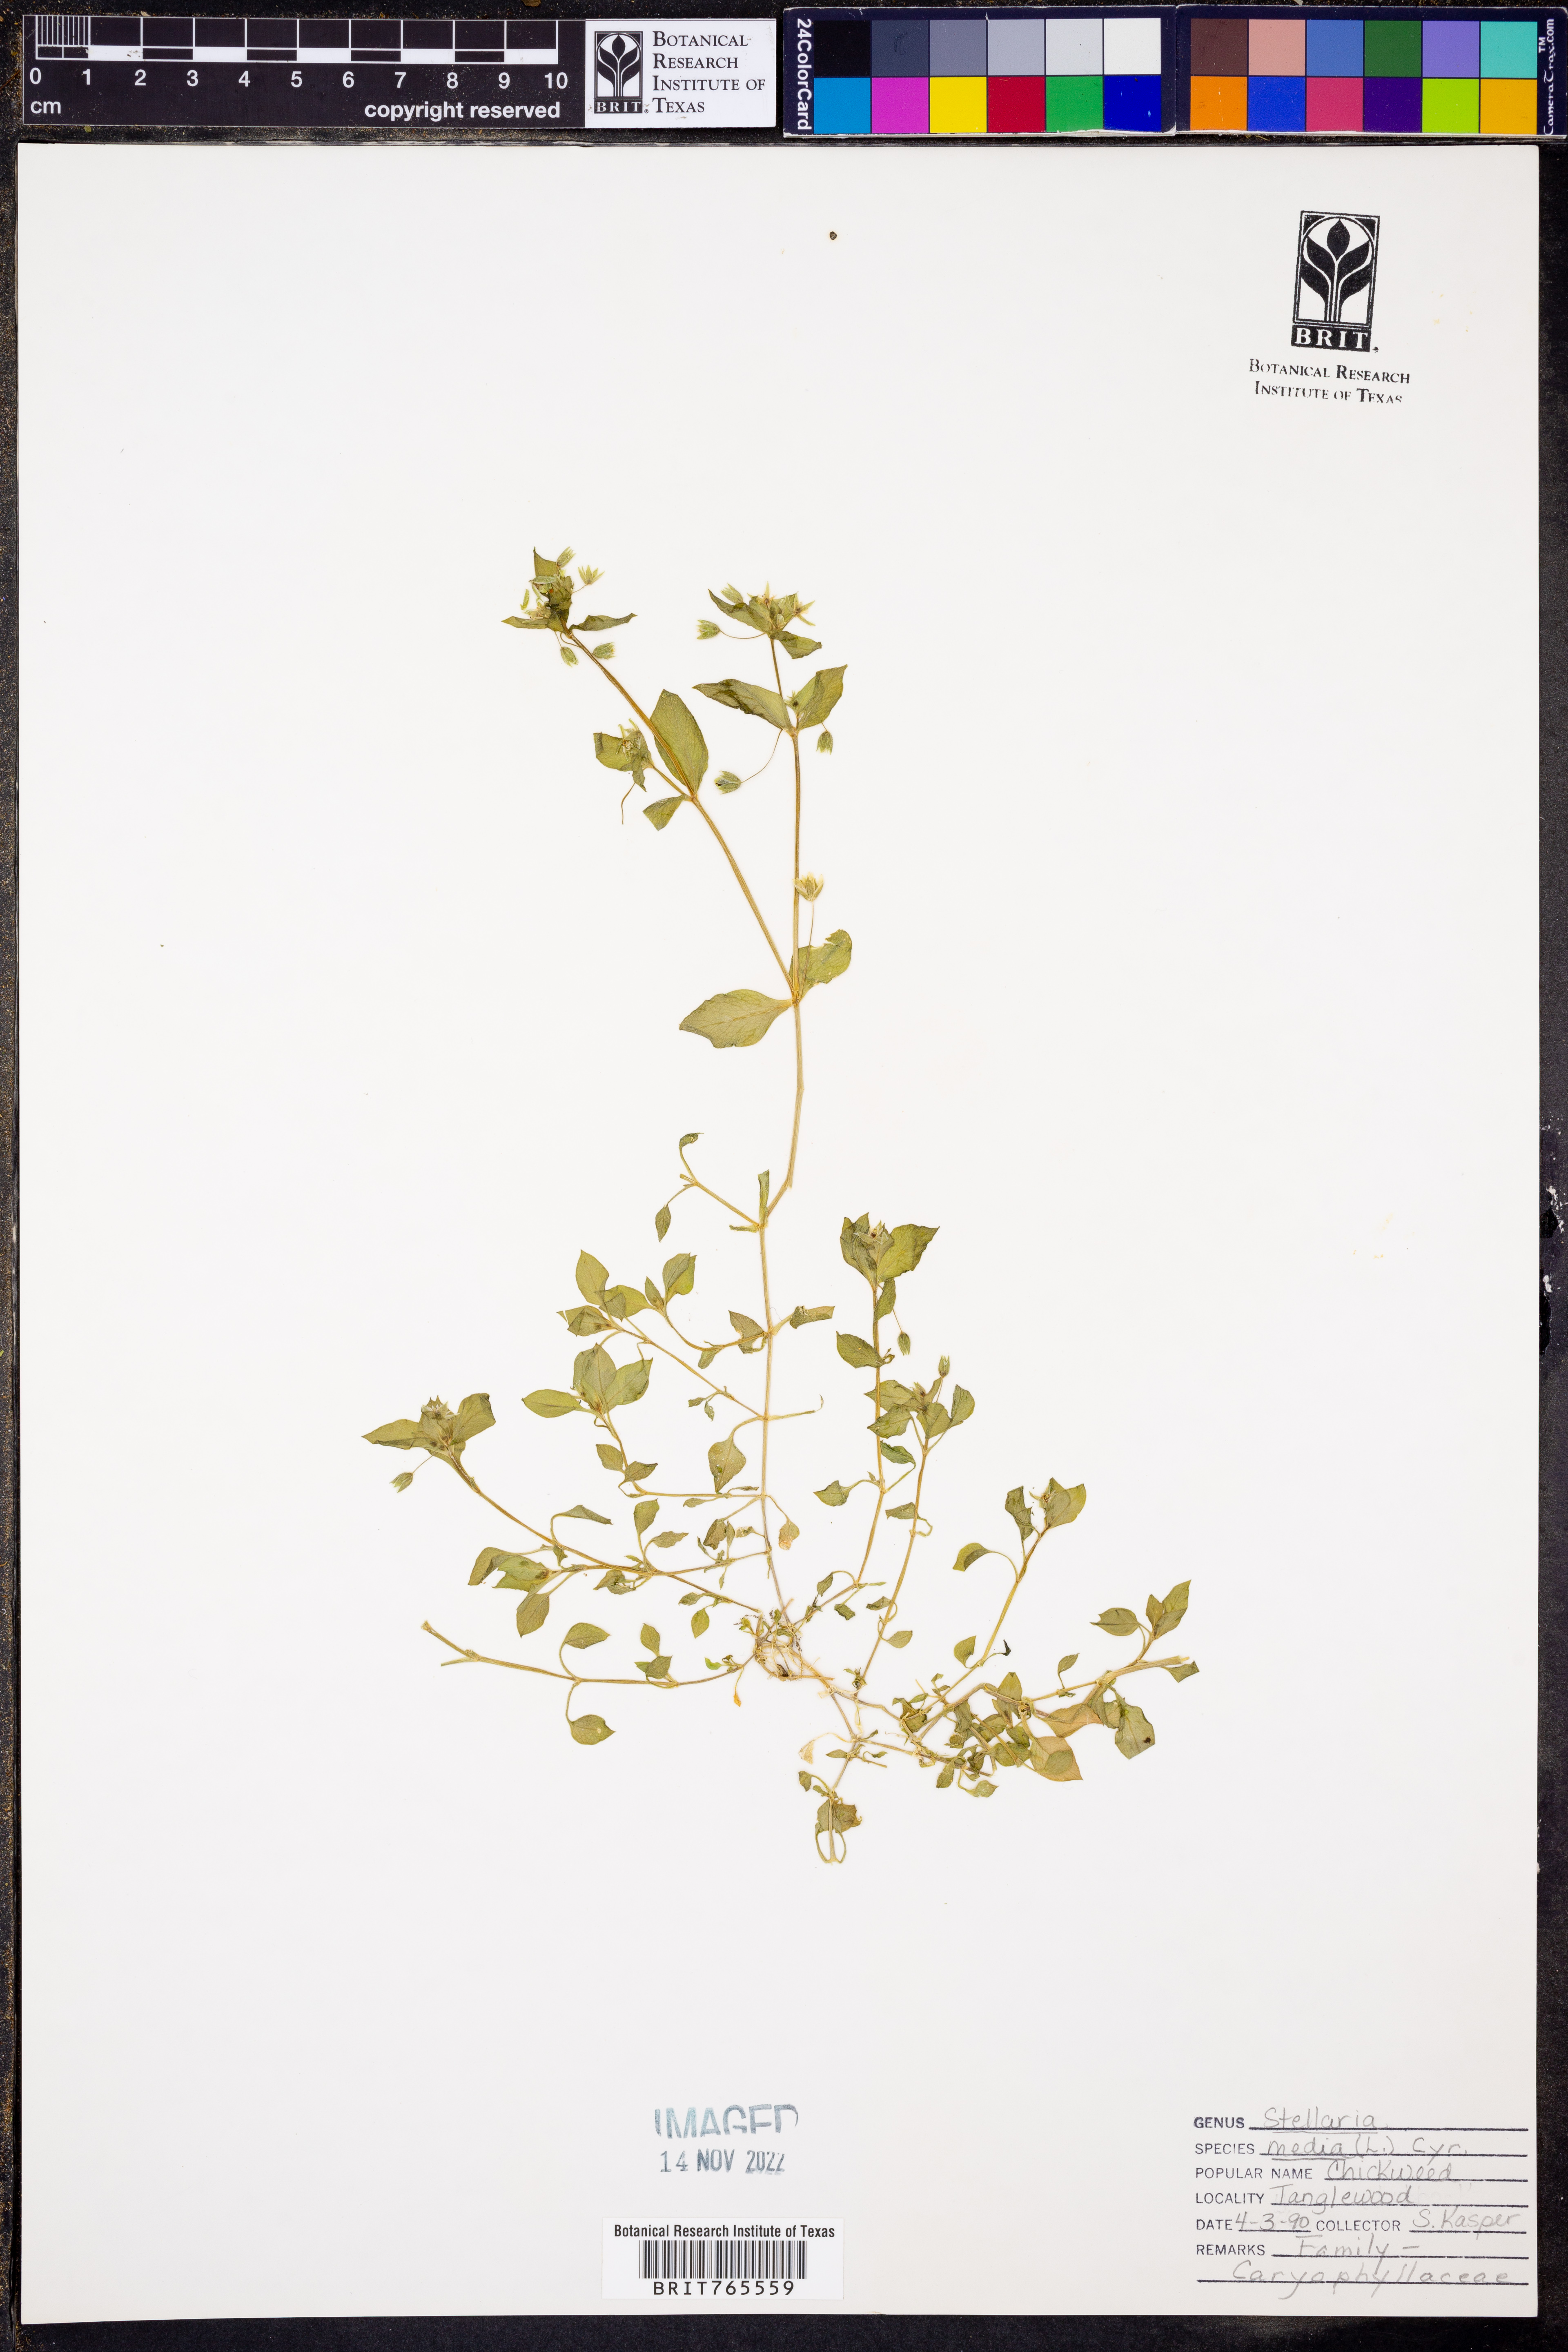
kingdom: Plantae
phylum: Tracheophyta
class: Magnoliopsida
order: Caryophyllales
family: Caryophyllaceae
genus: Stellaria
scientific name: Stellaria media
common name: Common chickweed
